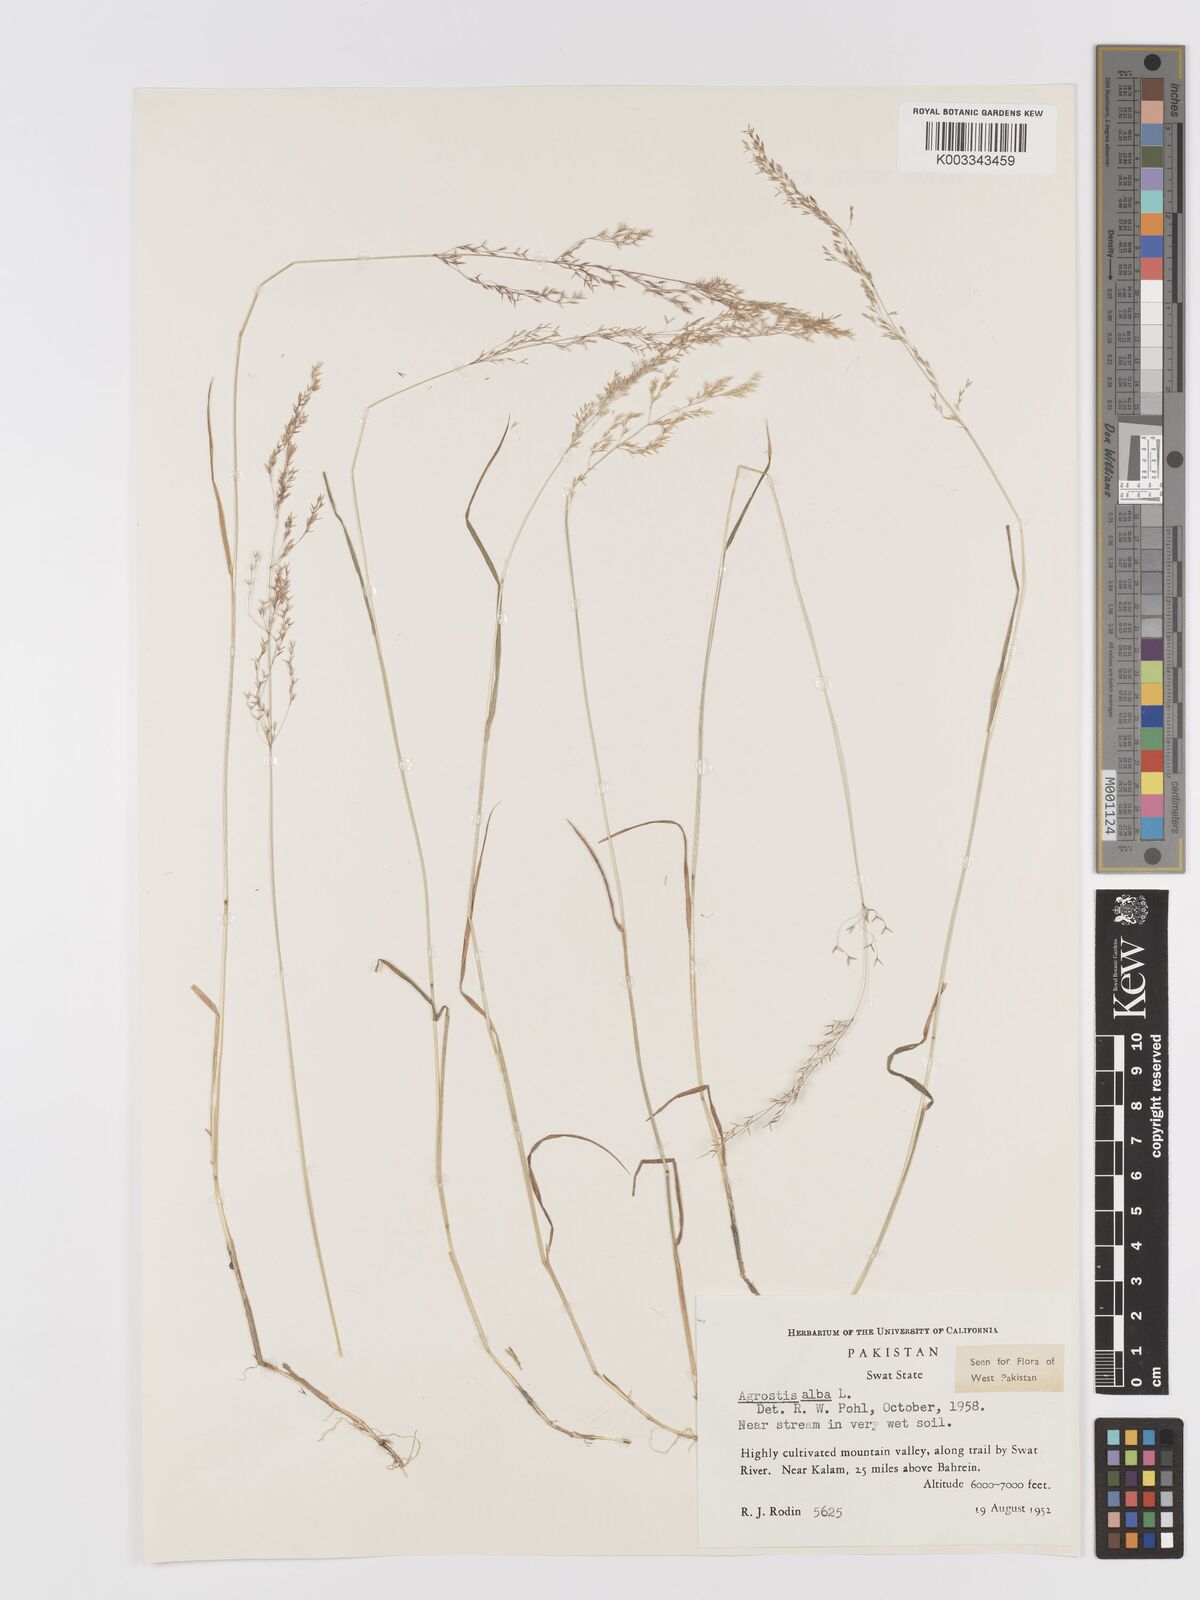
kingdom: Plantae
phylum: Tracheophyta
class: Liliopsida
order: Poales
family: Poaceae
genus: Agrostis
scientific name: Agrostis stolonifera
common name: Creeping bentgrass
